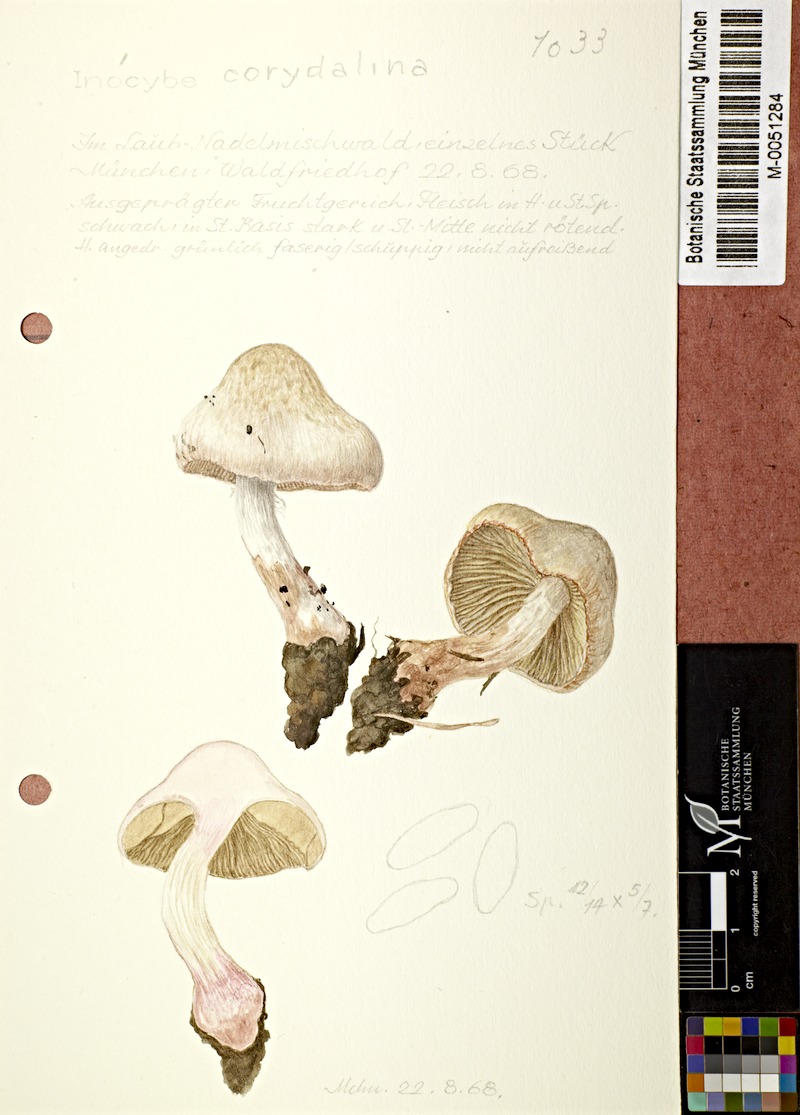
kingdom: Fungi
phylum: Basidiomycota
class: Agaricomycetes
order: Agaricales
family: Inocybaceae
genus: Inocybe
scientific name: Inocybe fraudans
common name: Pear fibrecap
